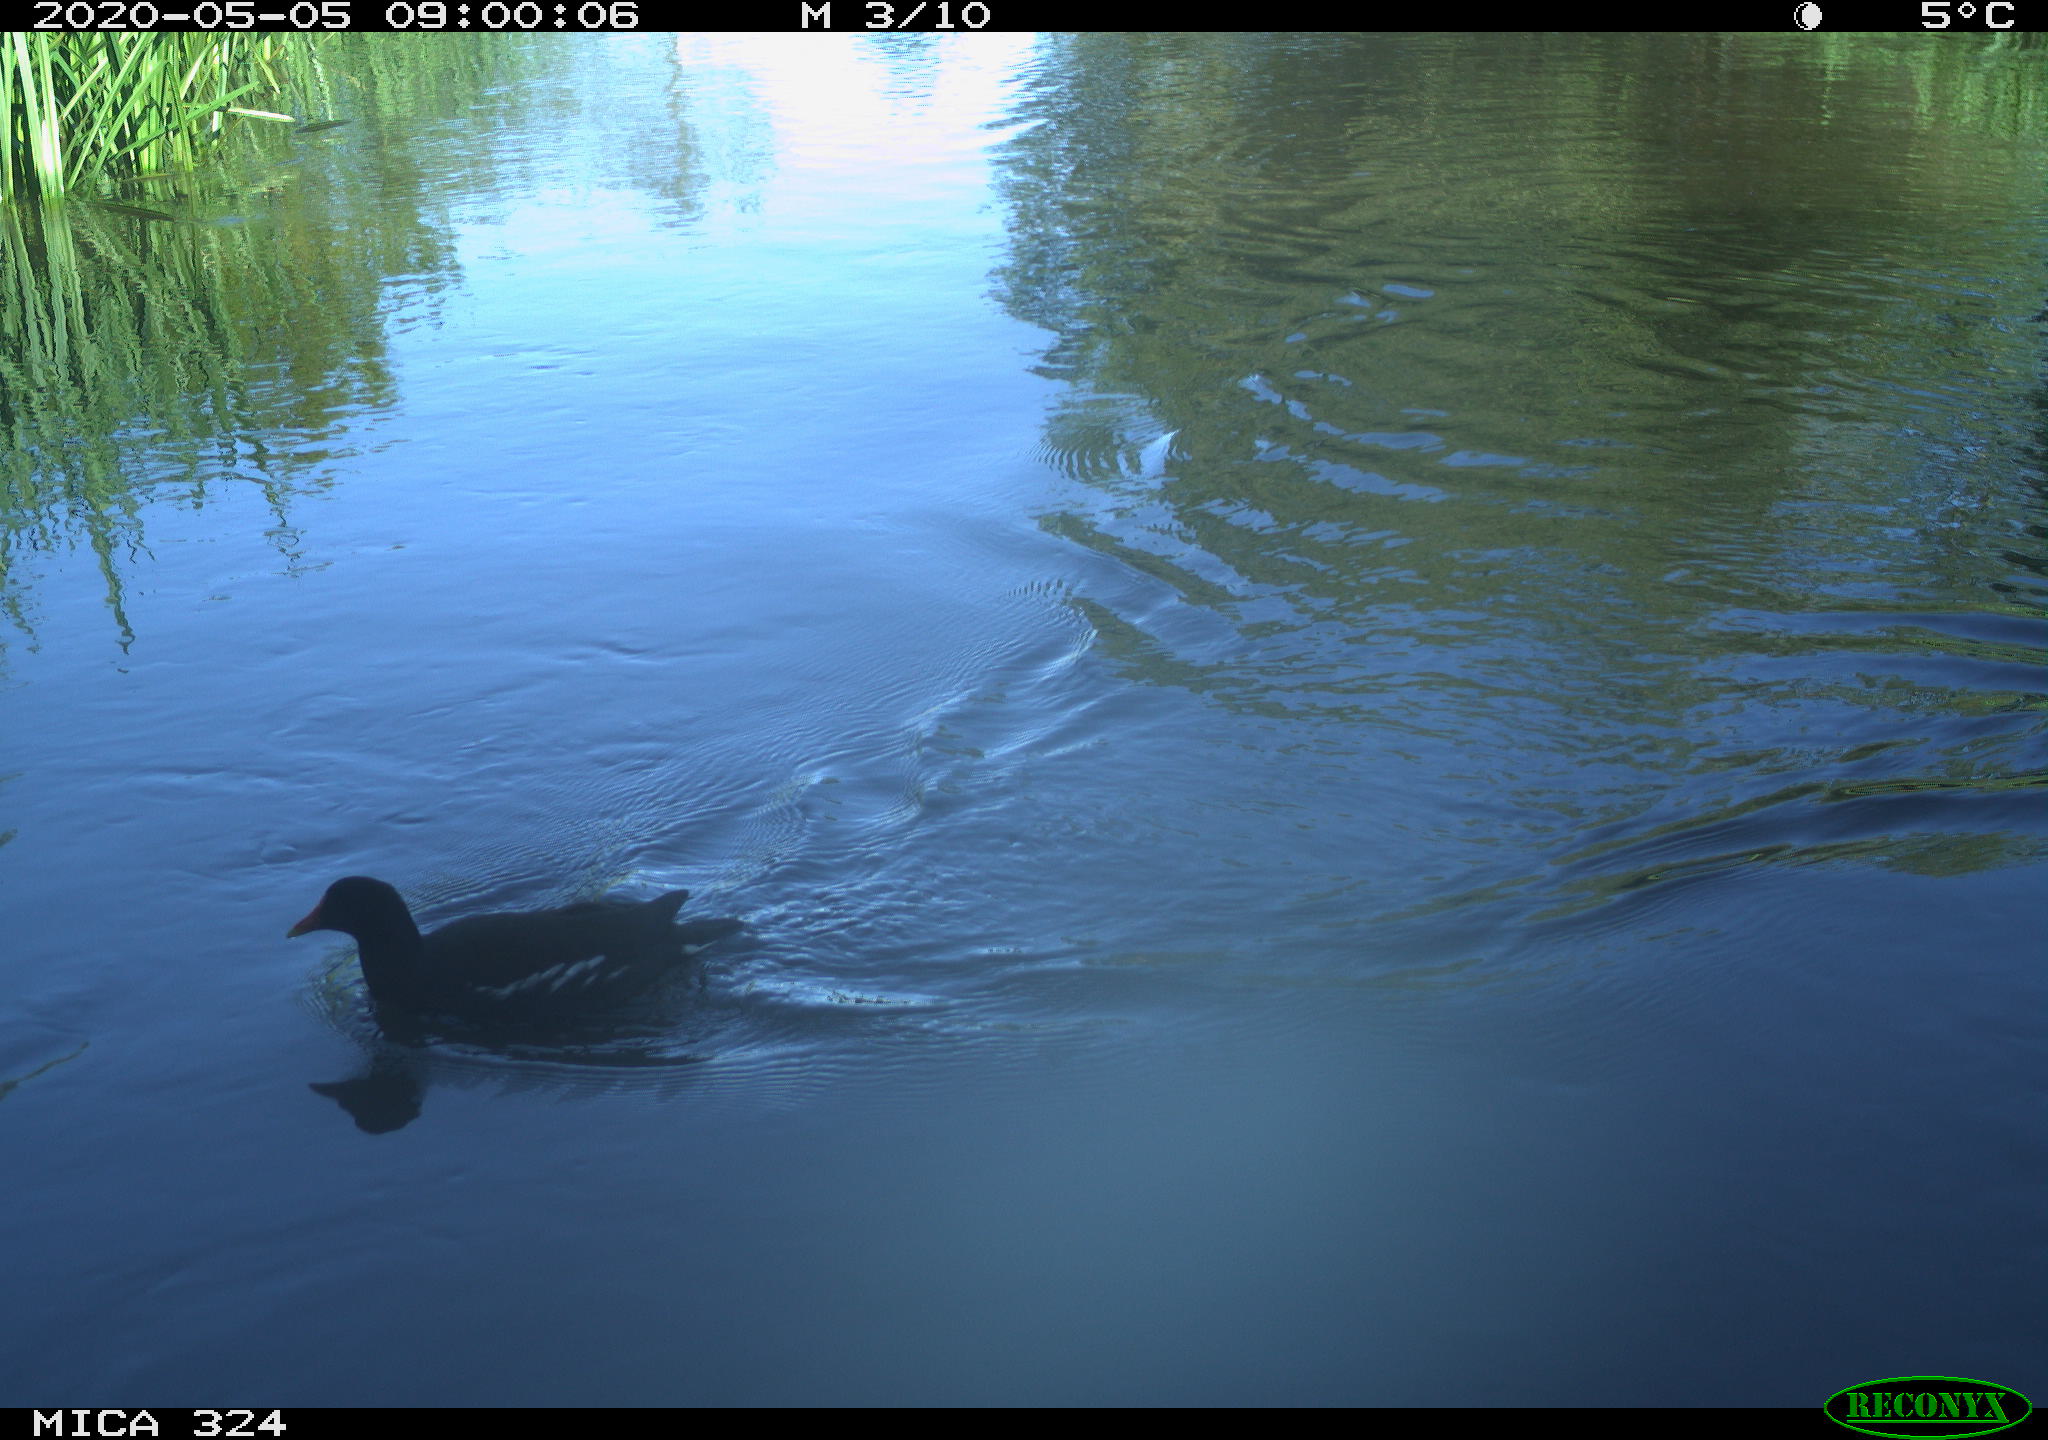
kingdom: Animalia
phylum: Chordata
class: Aves
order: Gruiformes
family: Rallidae
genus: Gallinula
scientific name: Gallinula chloropus
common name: Common moorhen
